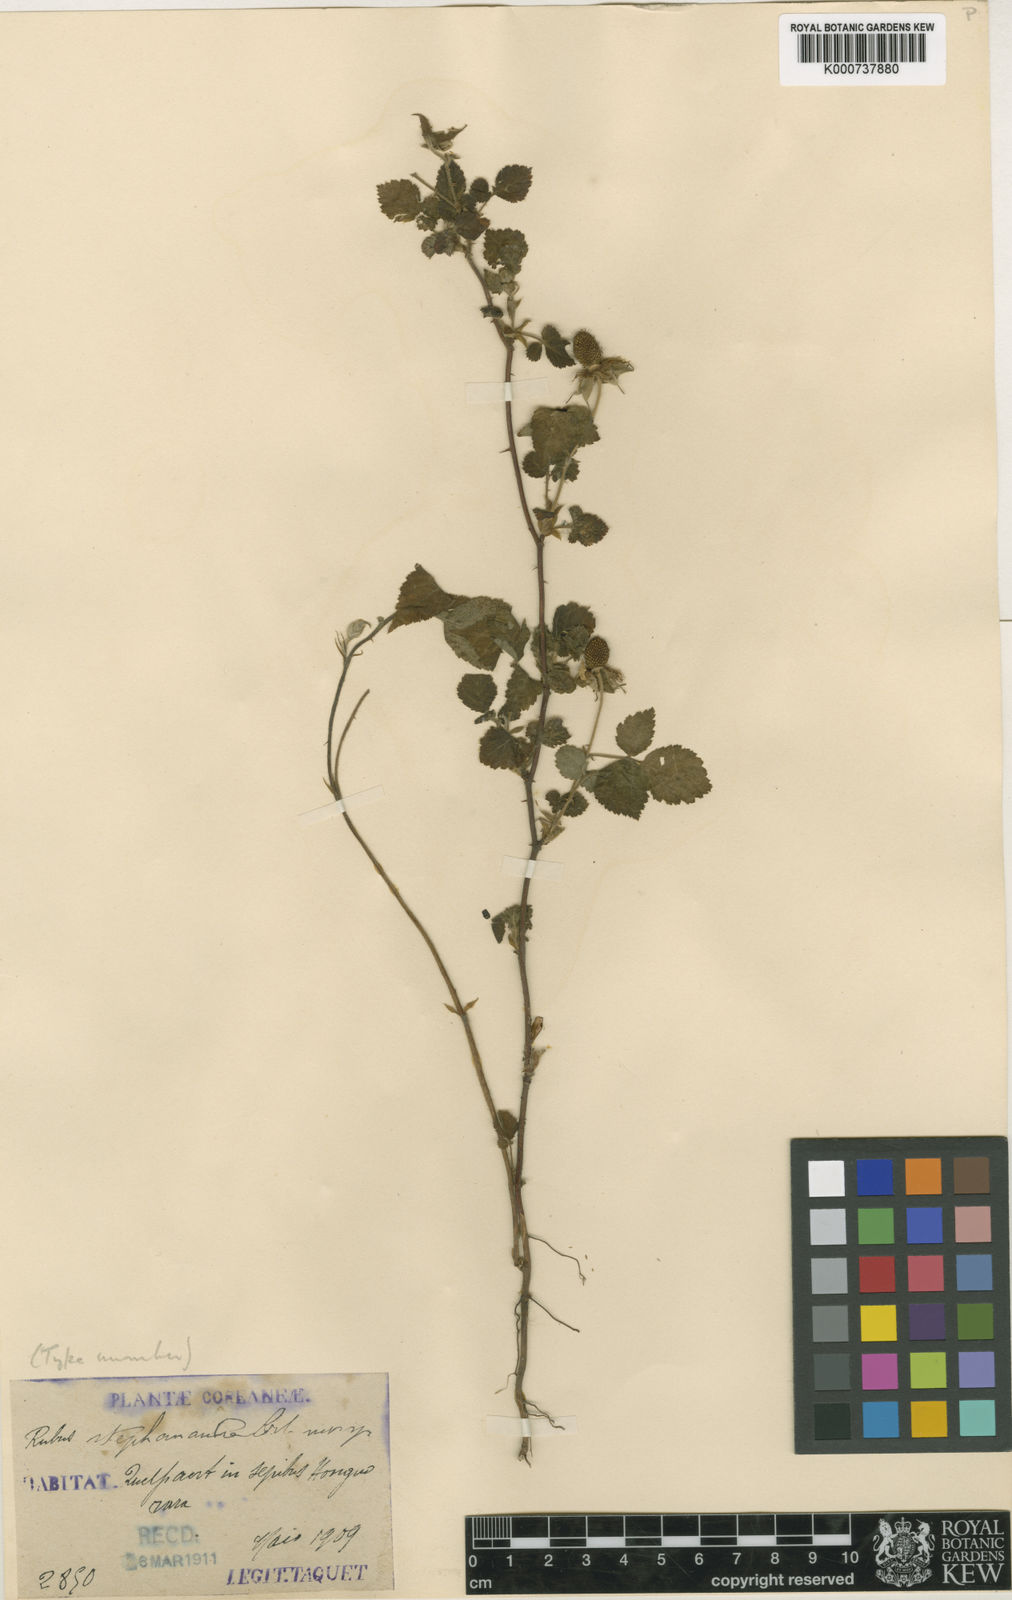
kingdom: Plantae
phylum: Tracheophyta
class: Magnoliopsida
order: Rosales
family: Rosaceae
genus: Rubus
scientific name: Rubus
